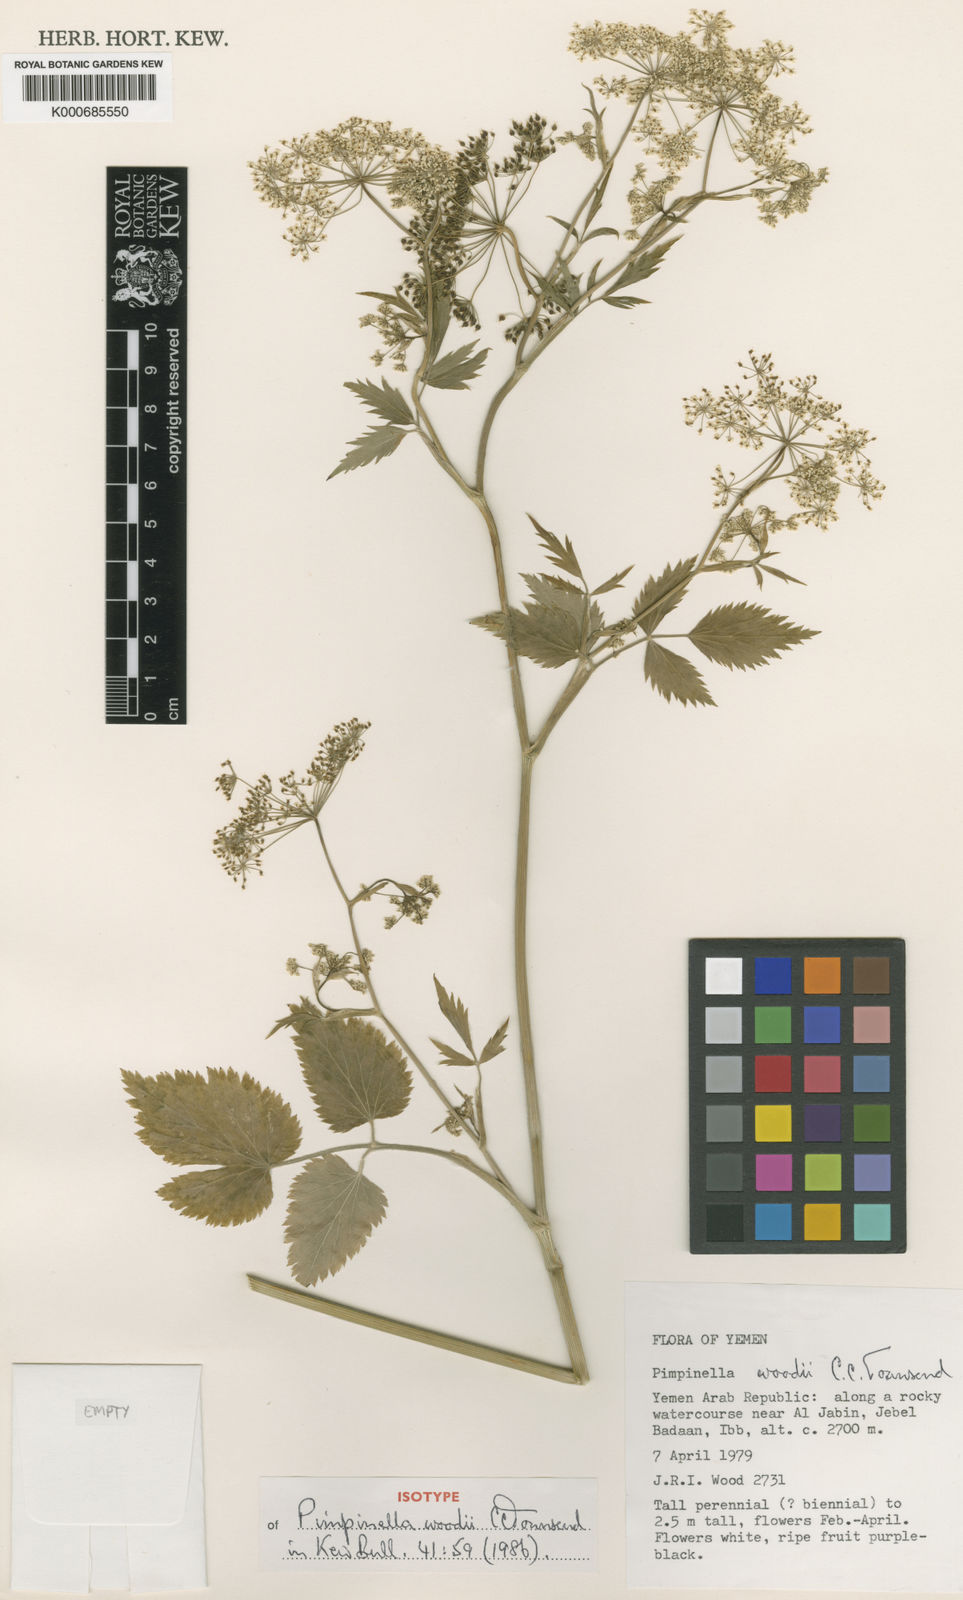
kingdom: Plantae
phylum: Tracheophyta
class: Magnoliopsida
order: Apiales
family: Apiaceae
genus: Pimpinella
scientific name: Pimpinella woodii
